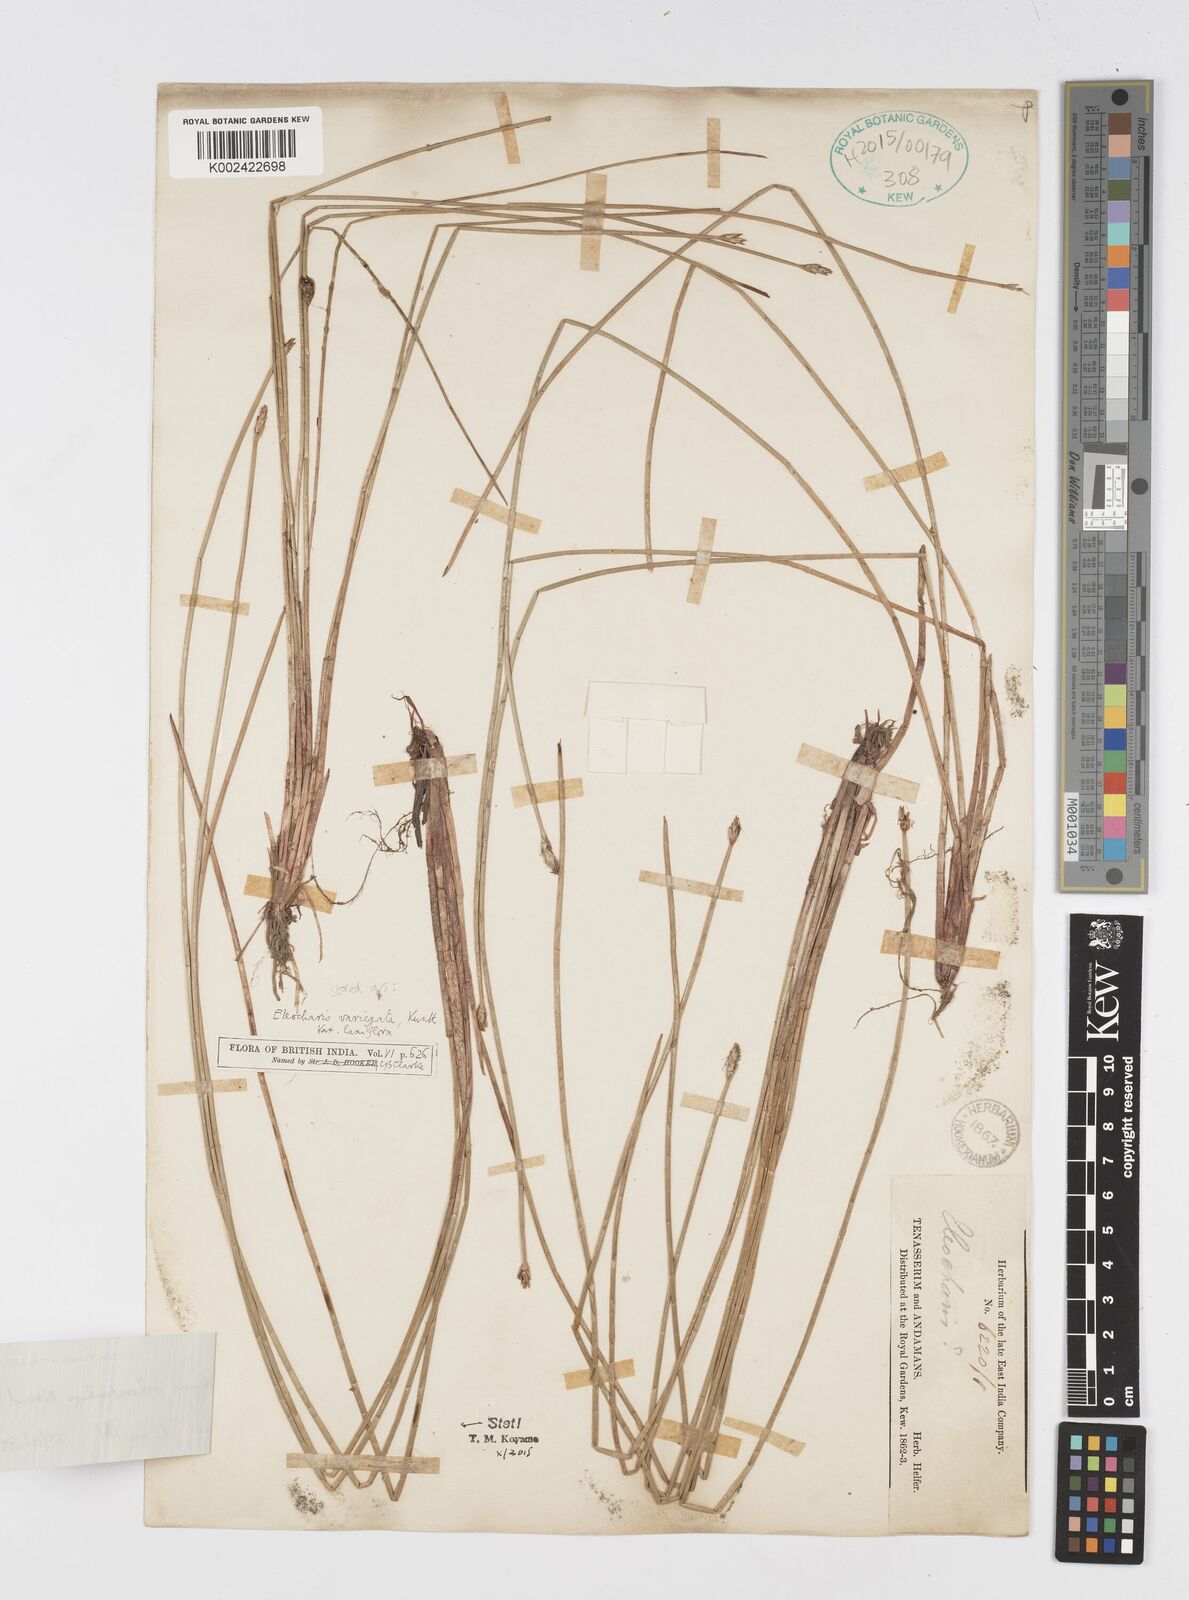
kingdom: Plantae
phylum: Tracheophyta
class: Liliopsida
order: Poales
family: Cyperaceae
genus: Eleocharis
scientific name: Eleocharis ochrostachys
